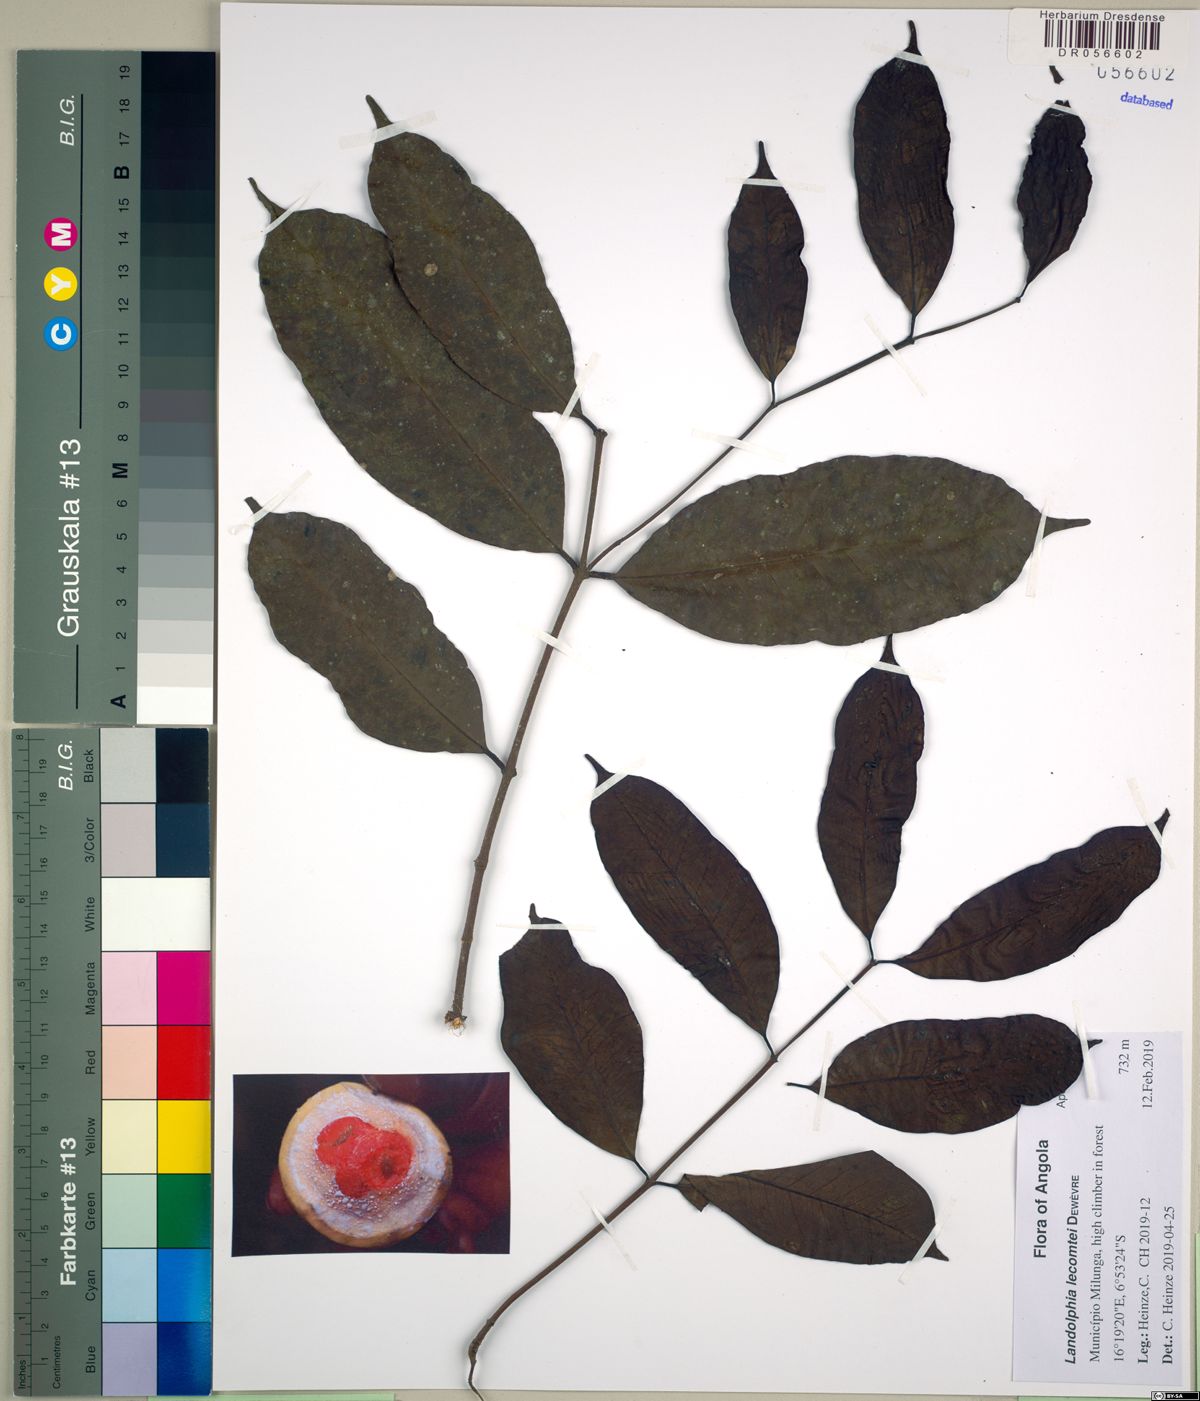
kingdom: Plantae
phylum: Tracheophyta
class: Magnoliopsida
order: Gentianales
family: Apocynaceae
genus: Landolphia
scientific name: Landolphia owariensis
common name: White-ball-rubber
